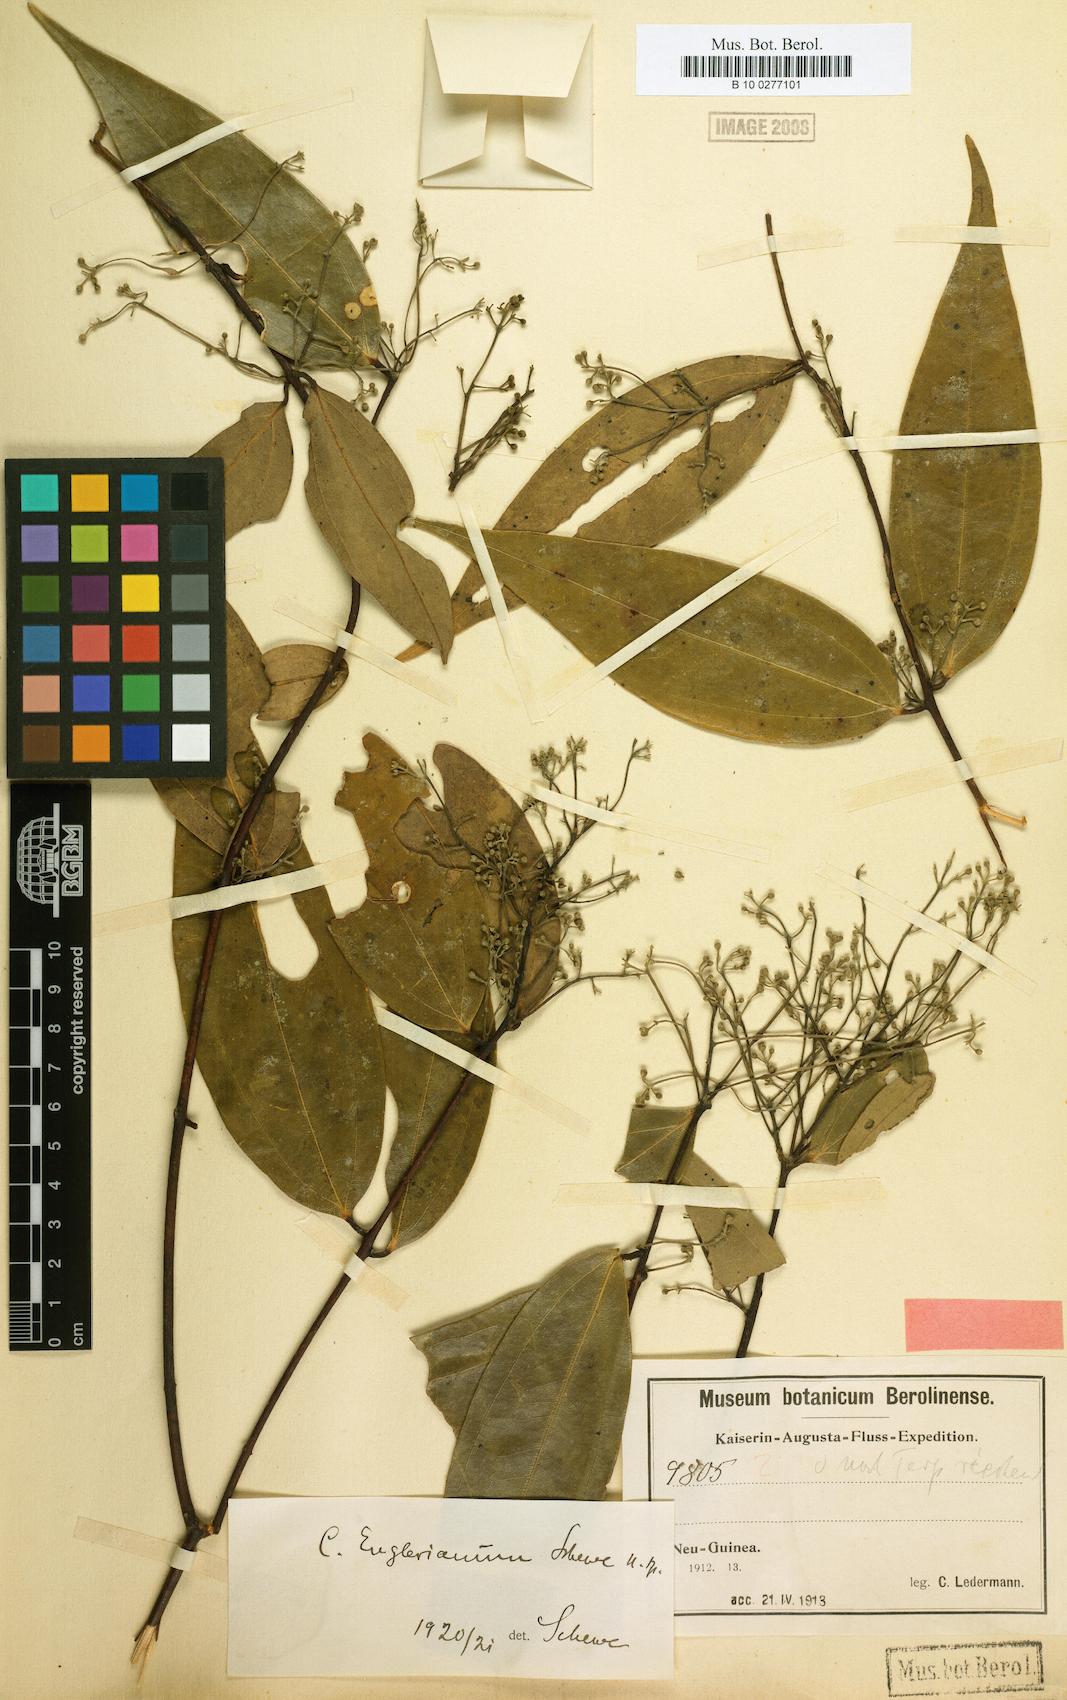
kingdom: Plantae
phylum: Tracheophyta
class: Magnoliopsida
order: Laurales
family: Lauraceae
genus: Cinnamomum
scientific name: Cinnamomum englerianum
